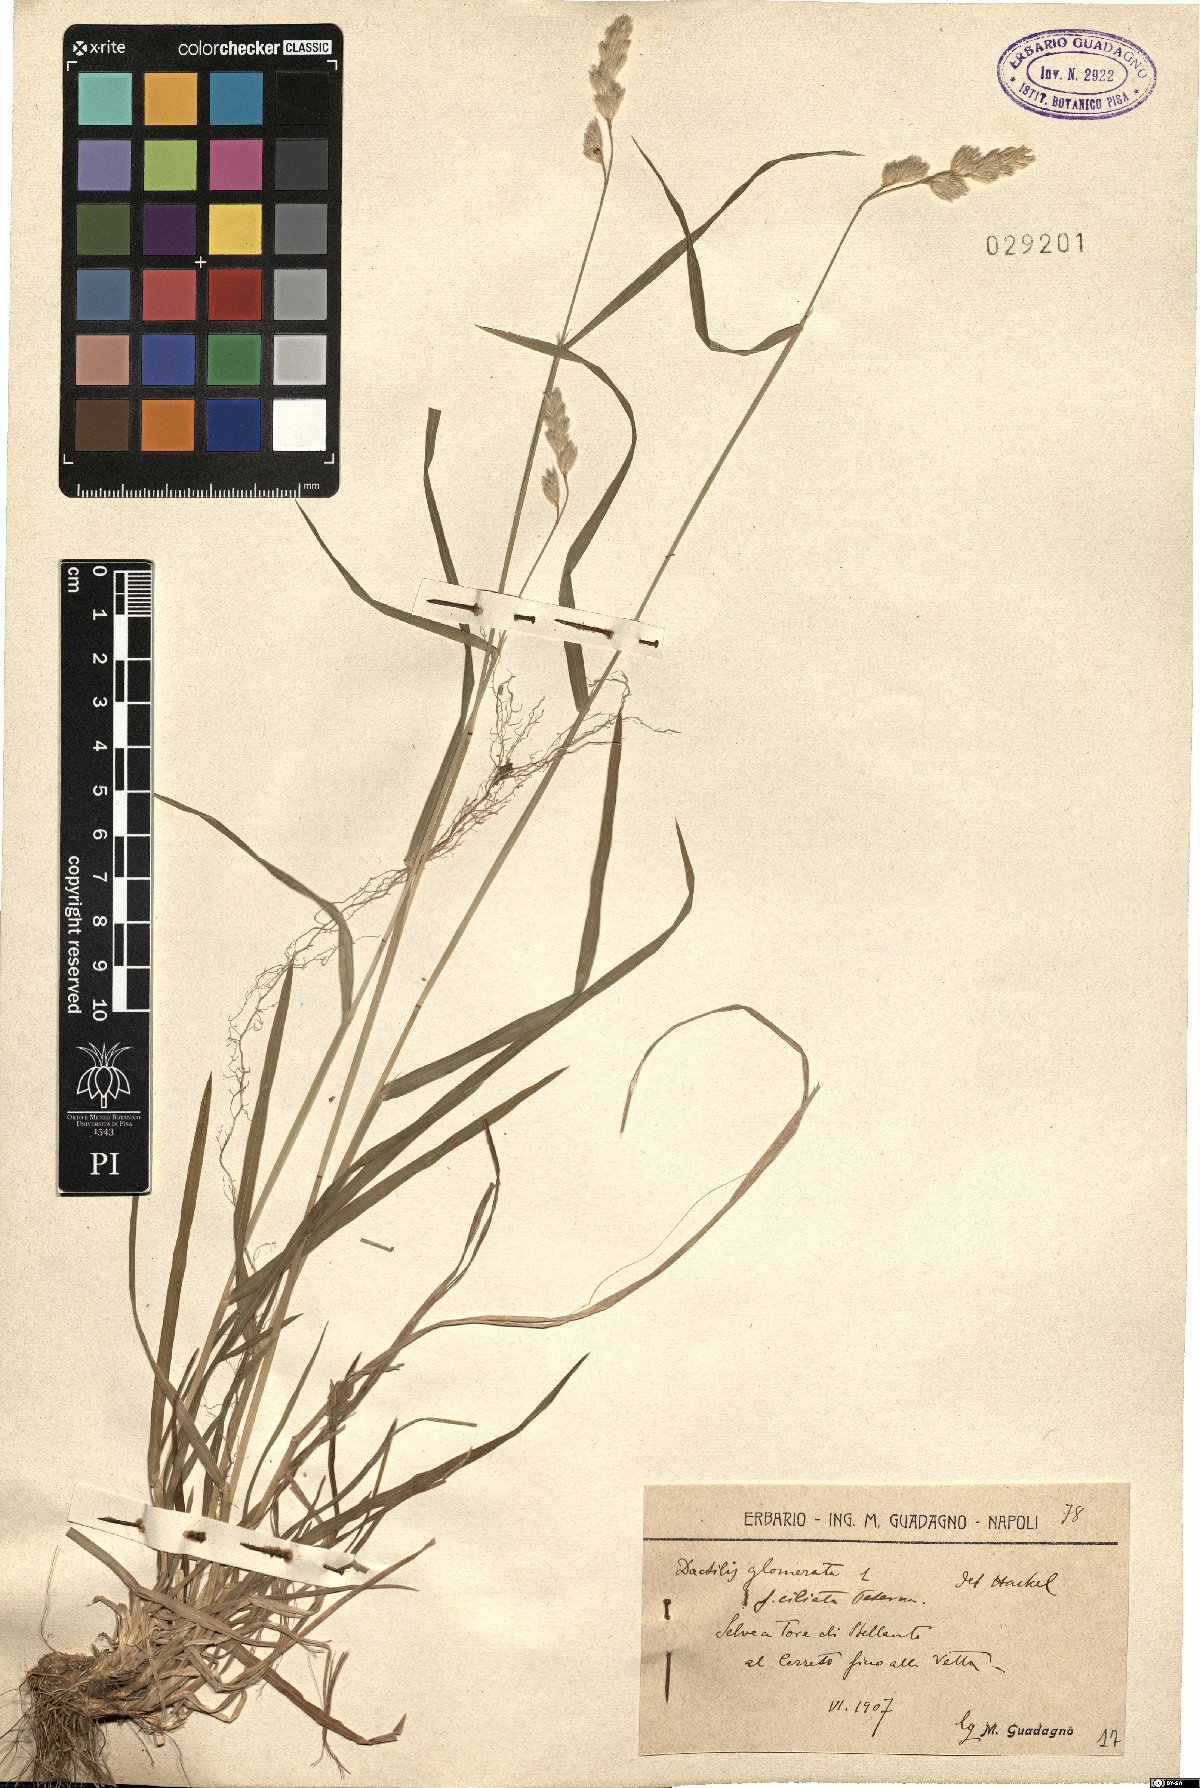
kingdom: Plantae
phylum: Tracheophyta
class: Liliopsida
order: Poales
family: Poaceae
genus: Dactylis
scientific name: Dactylis glomerata
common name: Orchardgrass
